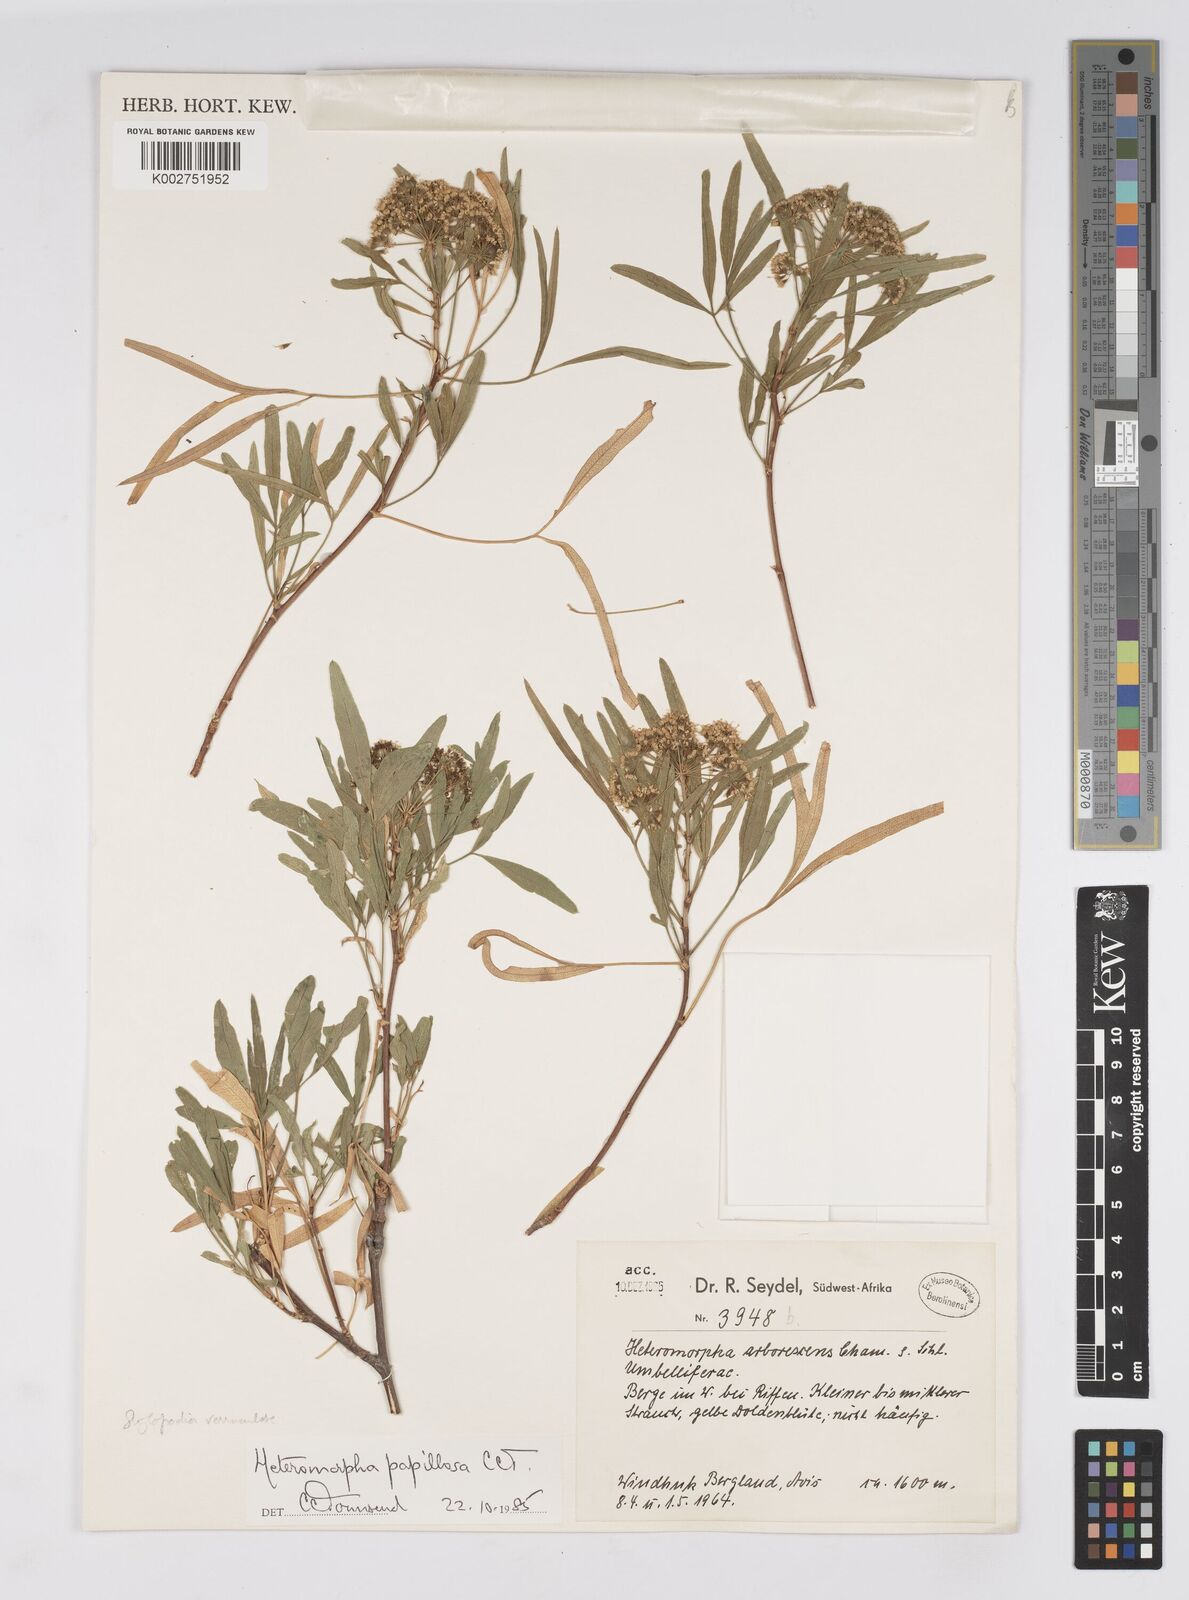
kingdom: Plantae
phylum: Tracheophyta
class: Magnoliopsida
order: Apiales
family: Apiaceae
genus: Heteromorpha
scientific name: Heteromorpha papillosa
